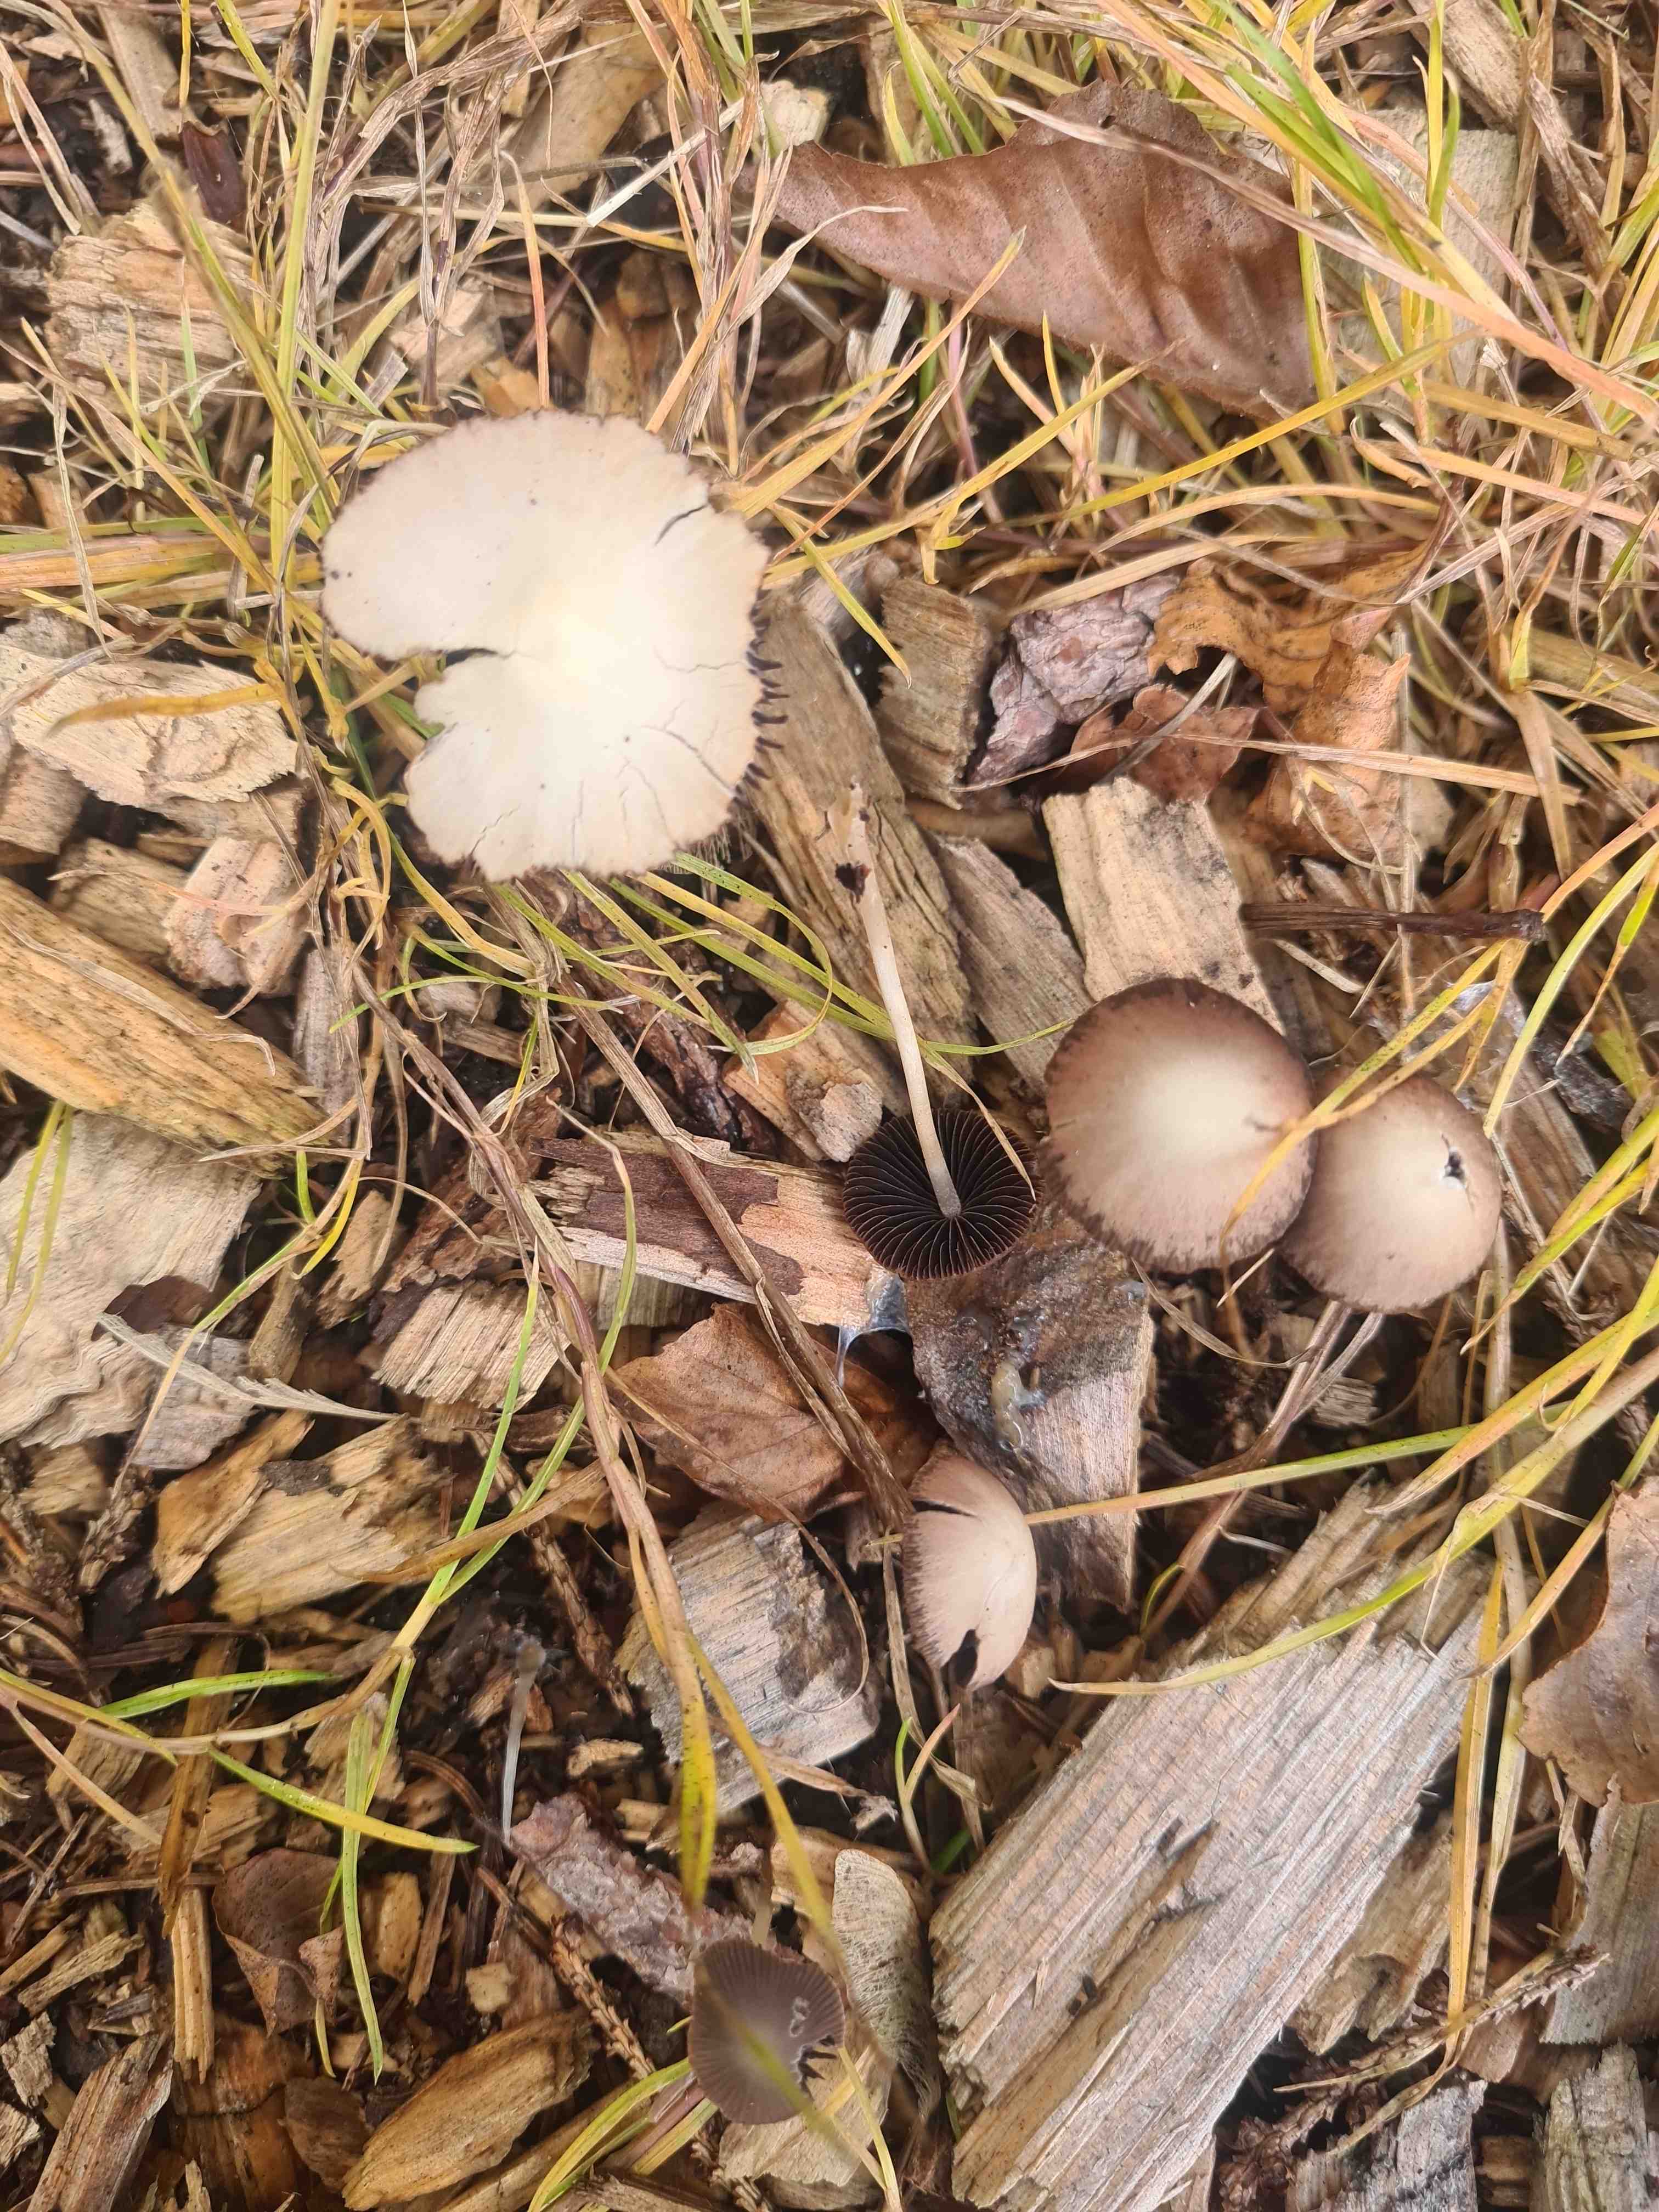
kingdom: Fungi
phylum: Basidiomycota
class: Agaricomycetes
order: Agaricales
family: Psathyrellaceae
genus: Psathyrella
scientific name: Psathyrella
